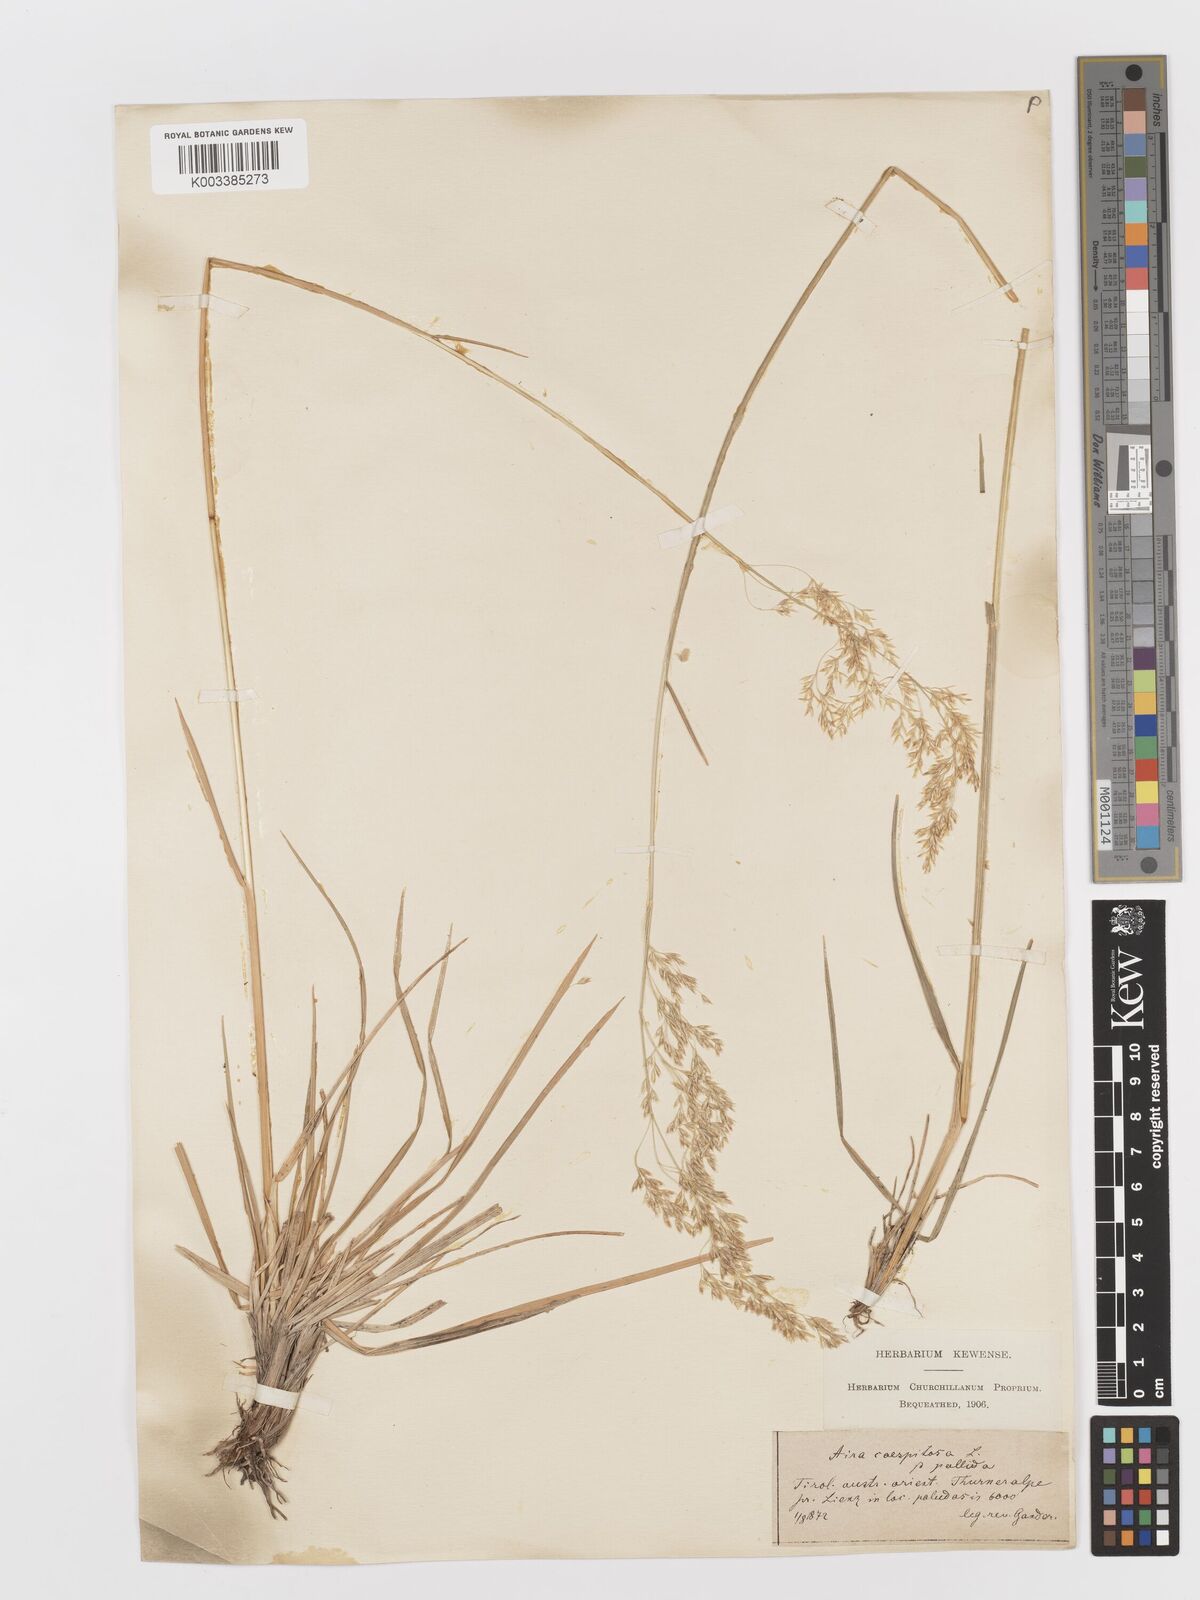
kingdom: Plantae
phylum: Tracheophyta
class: Liliopsida
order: Poales
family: Poaceae
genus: Deschampsia
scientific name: Deschampsia cespitosa
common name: Tufted hair-grass
